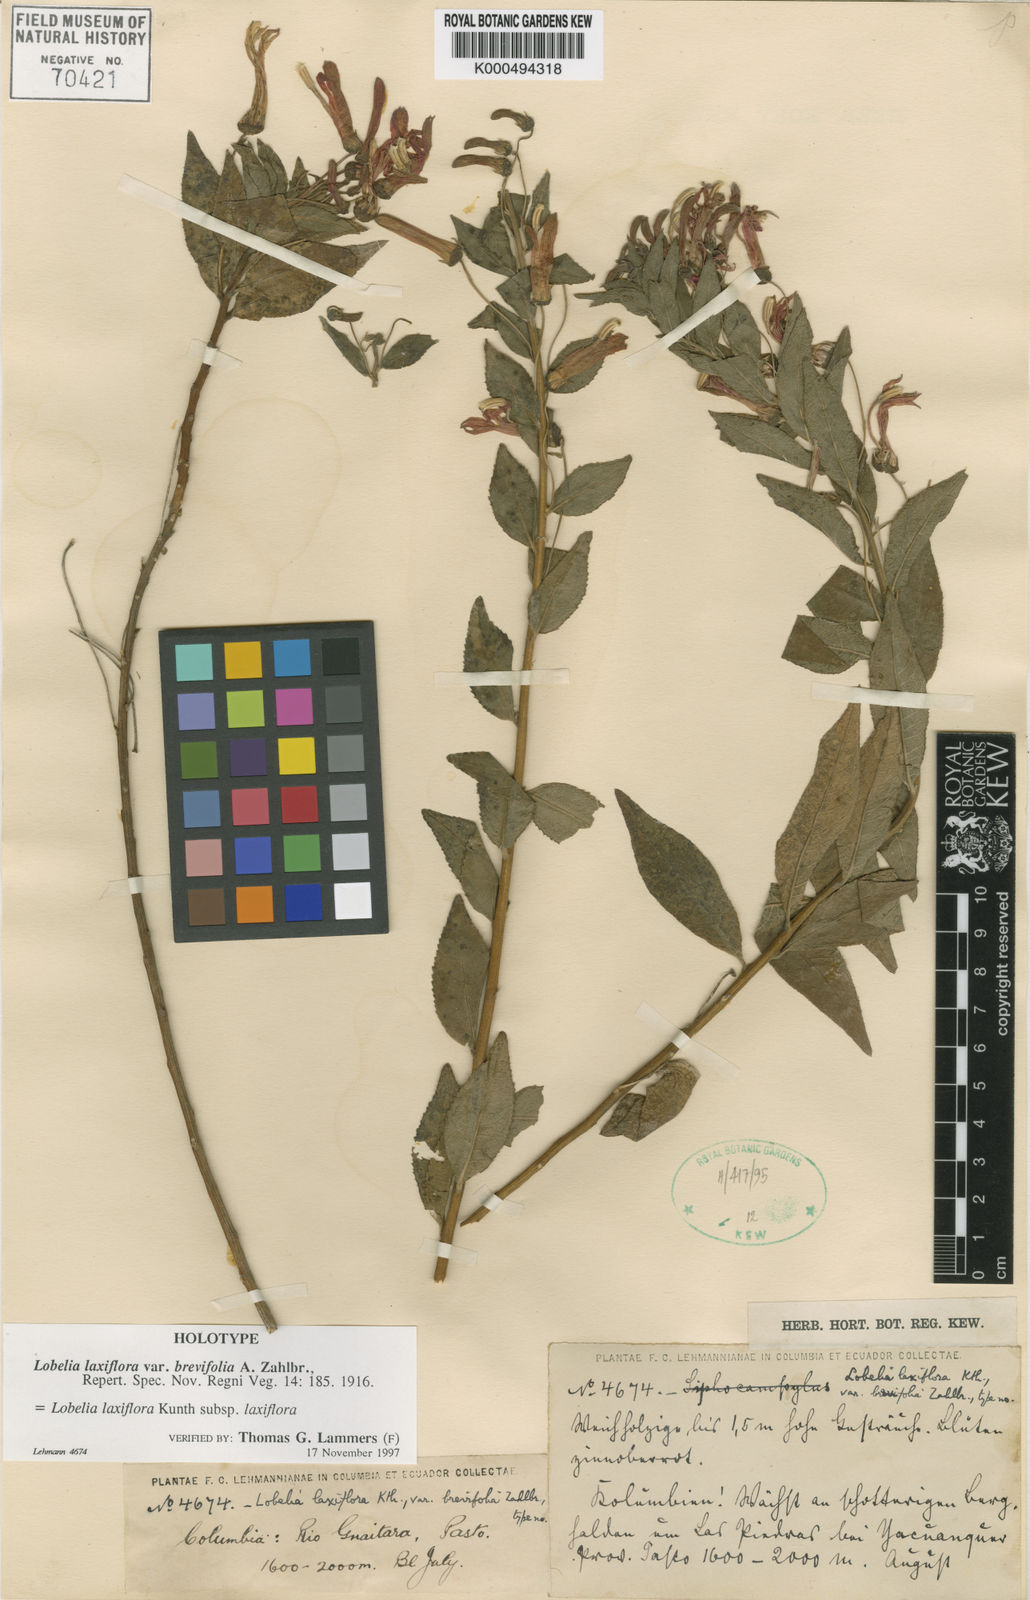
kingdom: Plantae
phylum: Tracheophyta
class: Magnoliopsida
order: Asterales
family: Campanulaceae
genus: Lobelia
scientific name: Lobelia laxiflora
